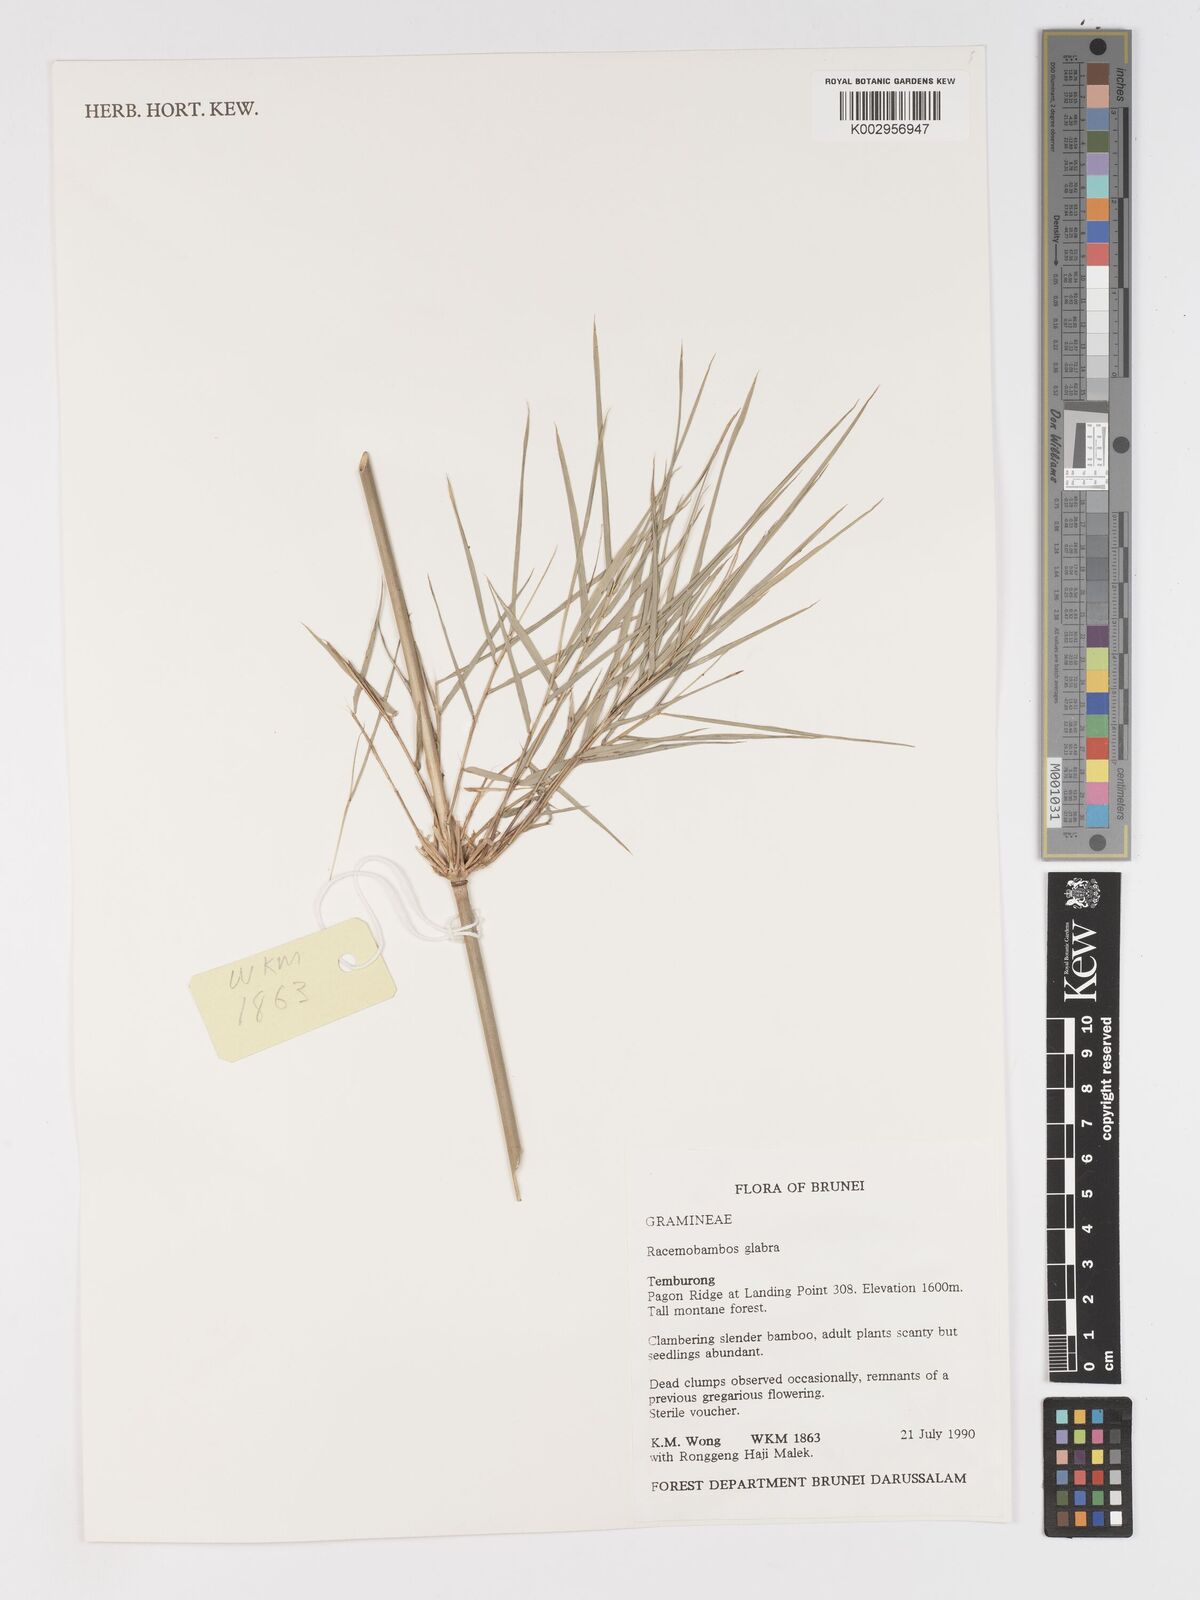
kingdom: Plantae
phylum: Tracheophyta
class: Liliopsida
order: Poales
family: Poaceae
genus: Racemobambos
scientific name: Racemobambos glabra
